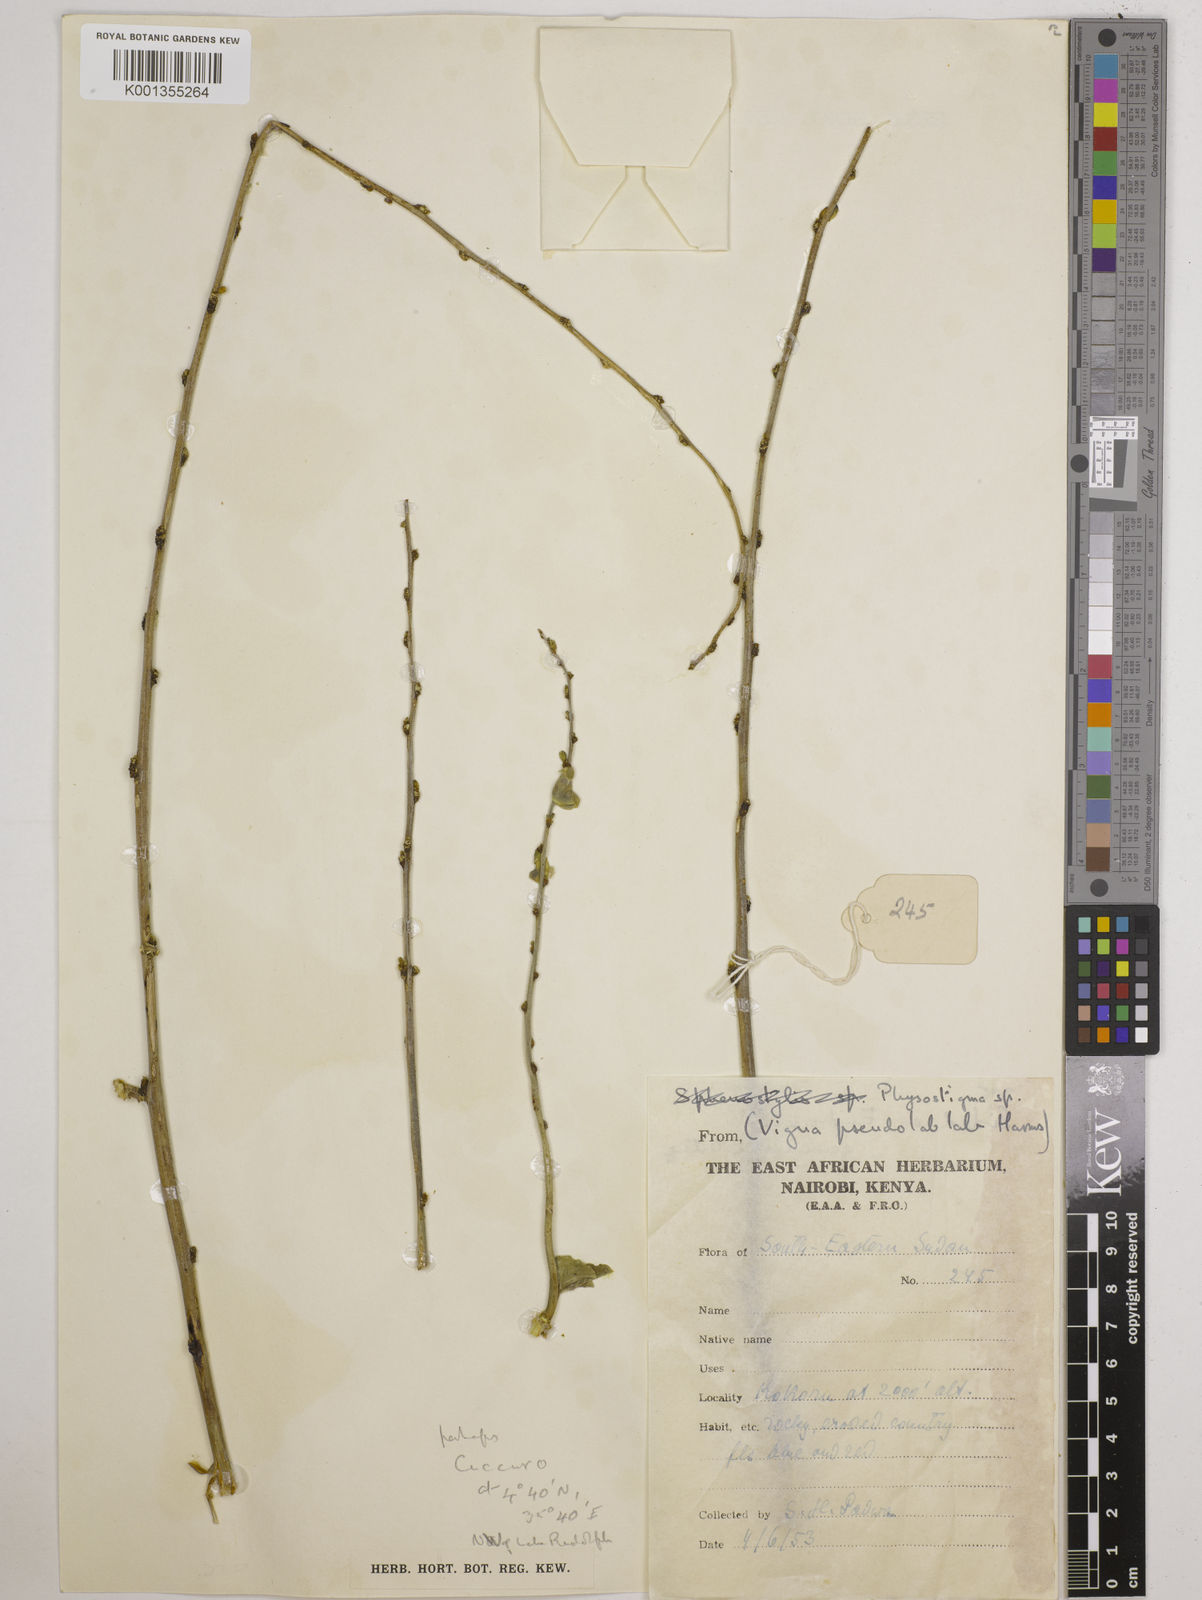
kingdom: Plantae
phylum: Tracheophyta
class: Magnoliopsida
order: Fabales
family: Fabaceae
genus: Vatovaea
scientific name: Vatovaea pseudolablab
